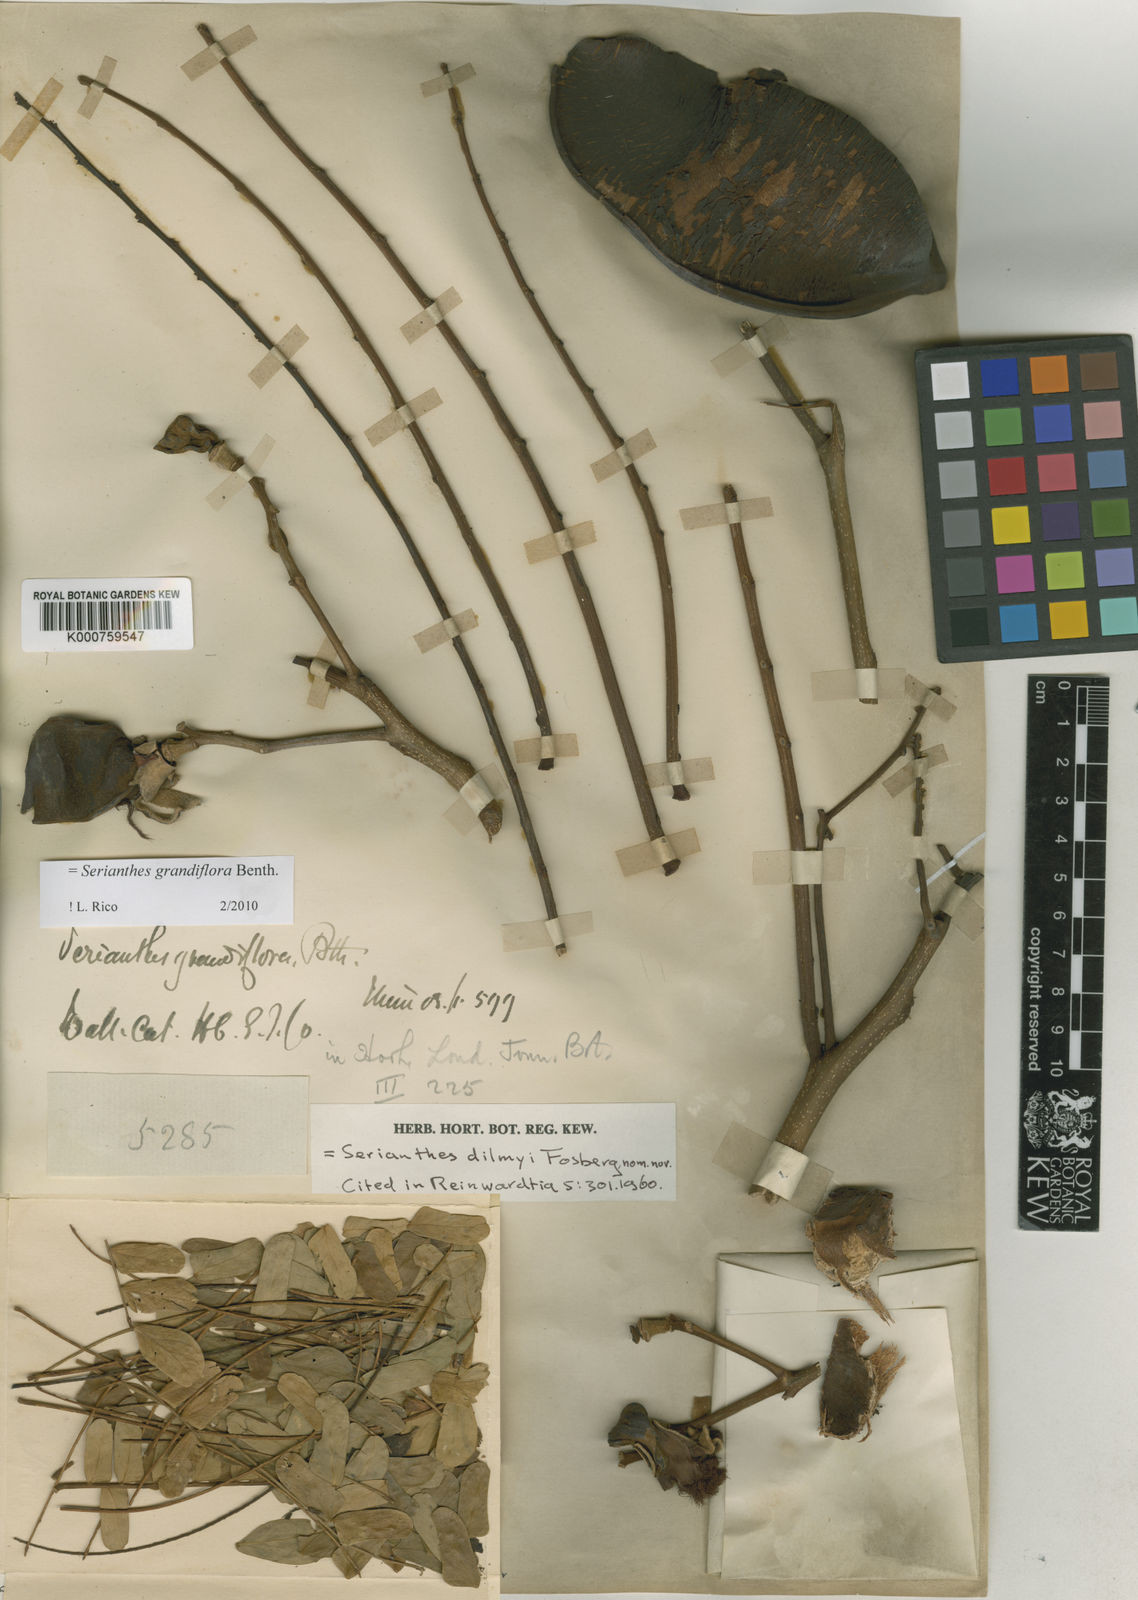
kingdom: Plantae
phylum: Tracheophyta
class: Magnoliopsida
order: Fabales
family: Fabaceae
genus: Serianthes
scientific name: Serianthes grandiflora
